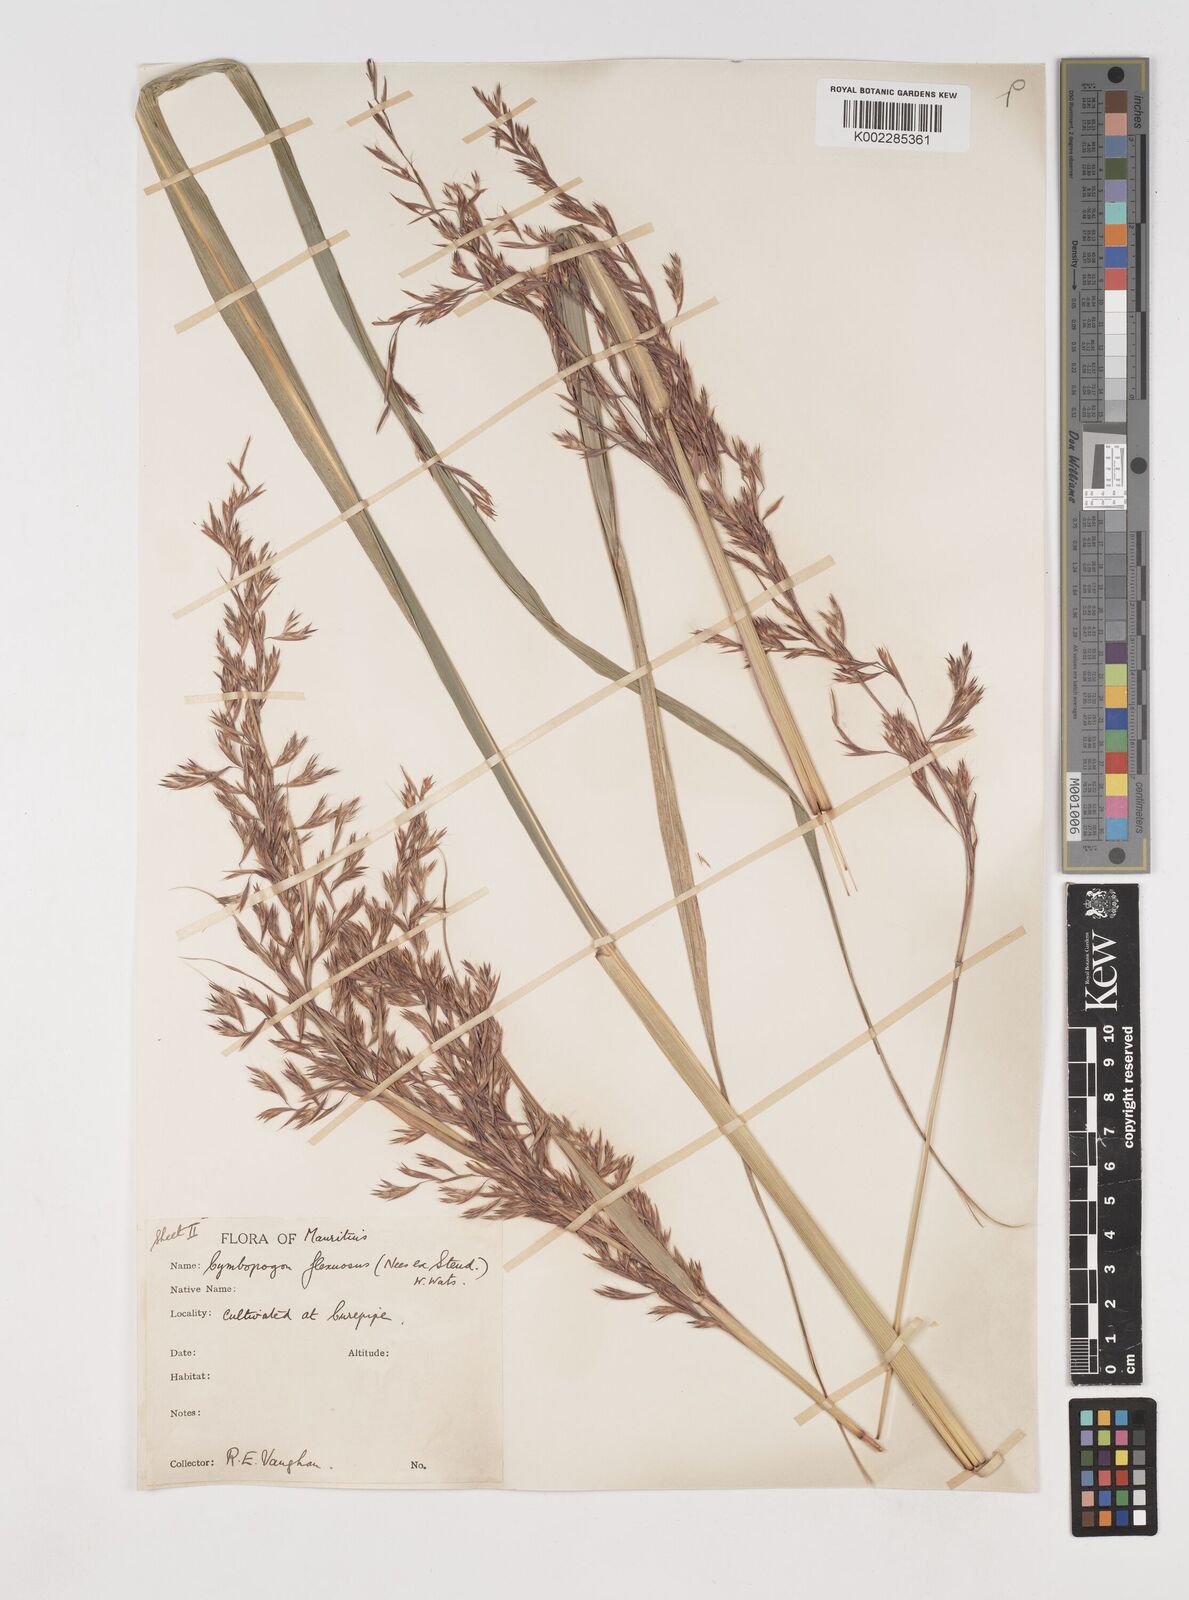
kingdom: Plantae
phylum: Tracheophyta
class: Liliopsida
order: Poales
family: Poaceae
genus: Cymbopogon
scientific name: Cymbopogon flexuosus
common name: East indian lemongrass
